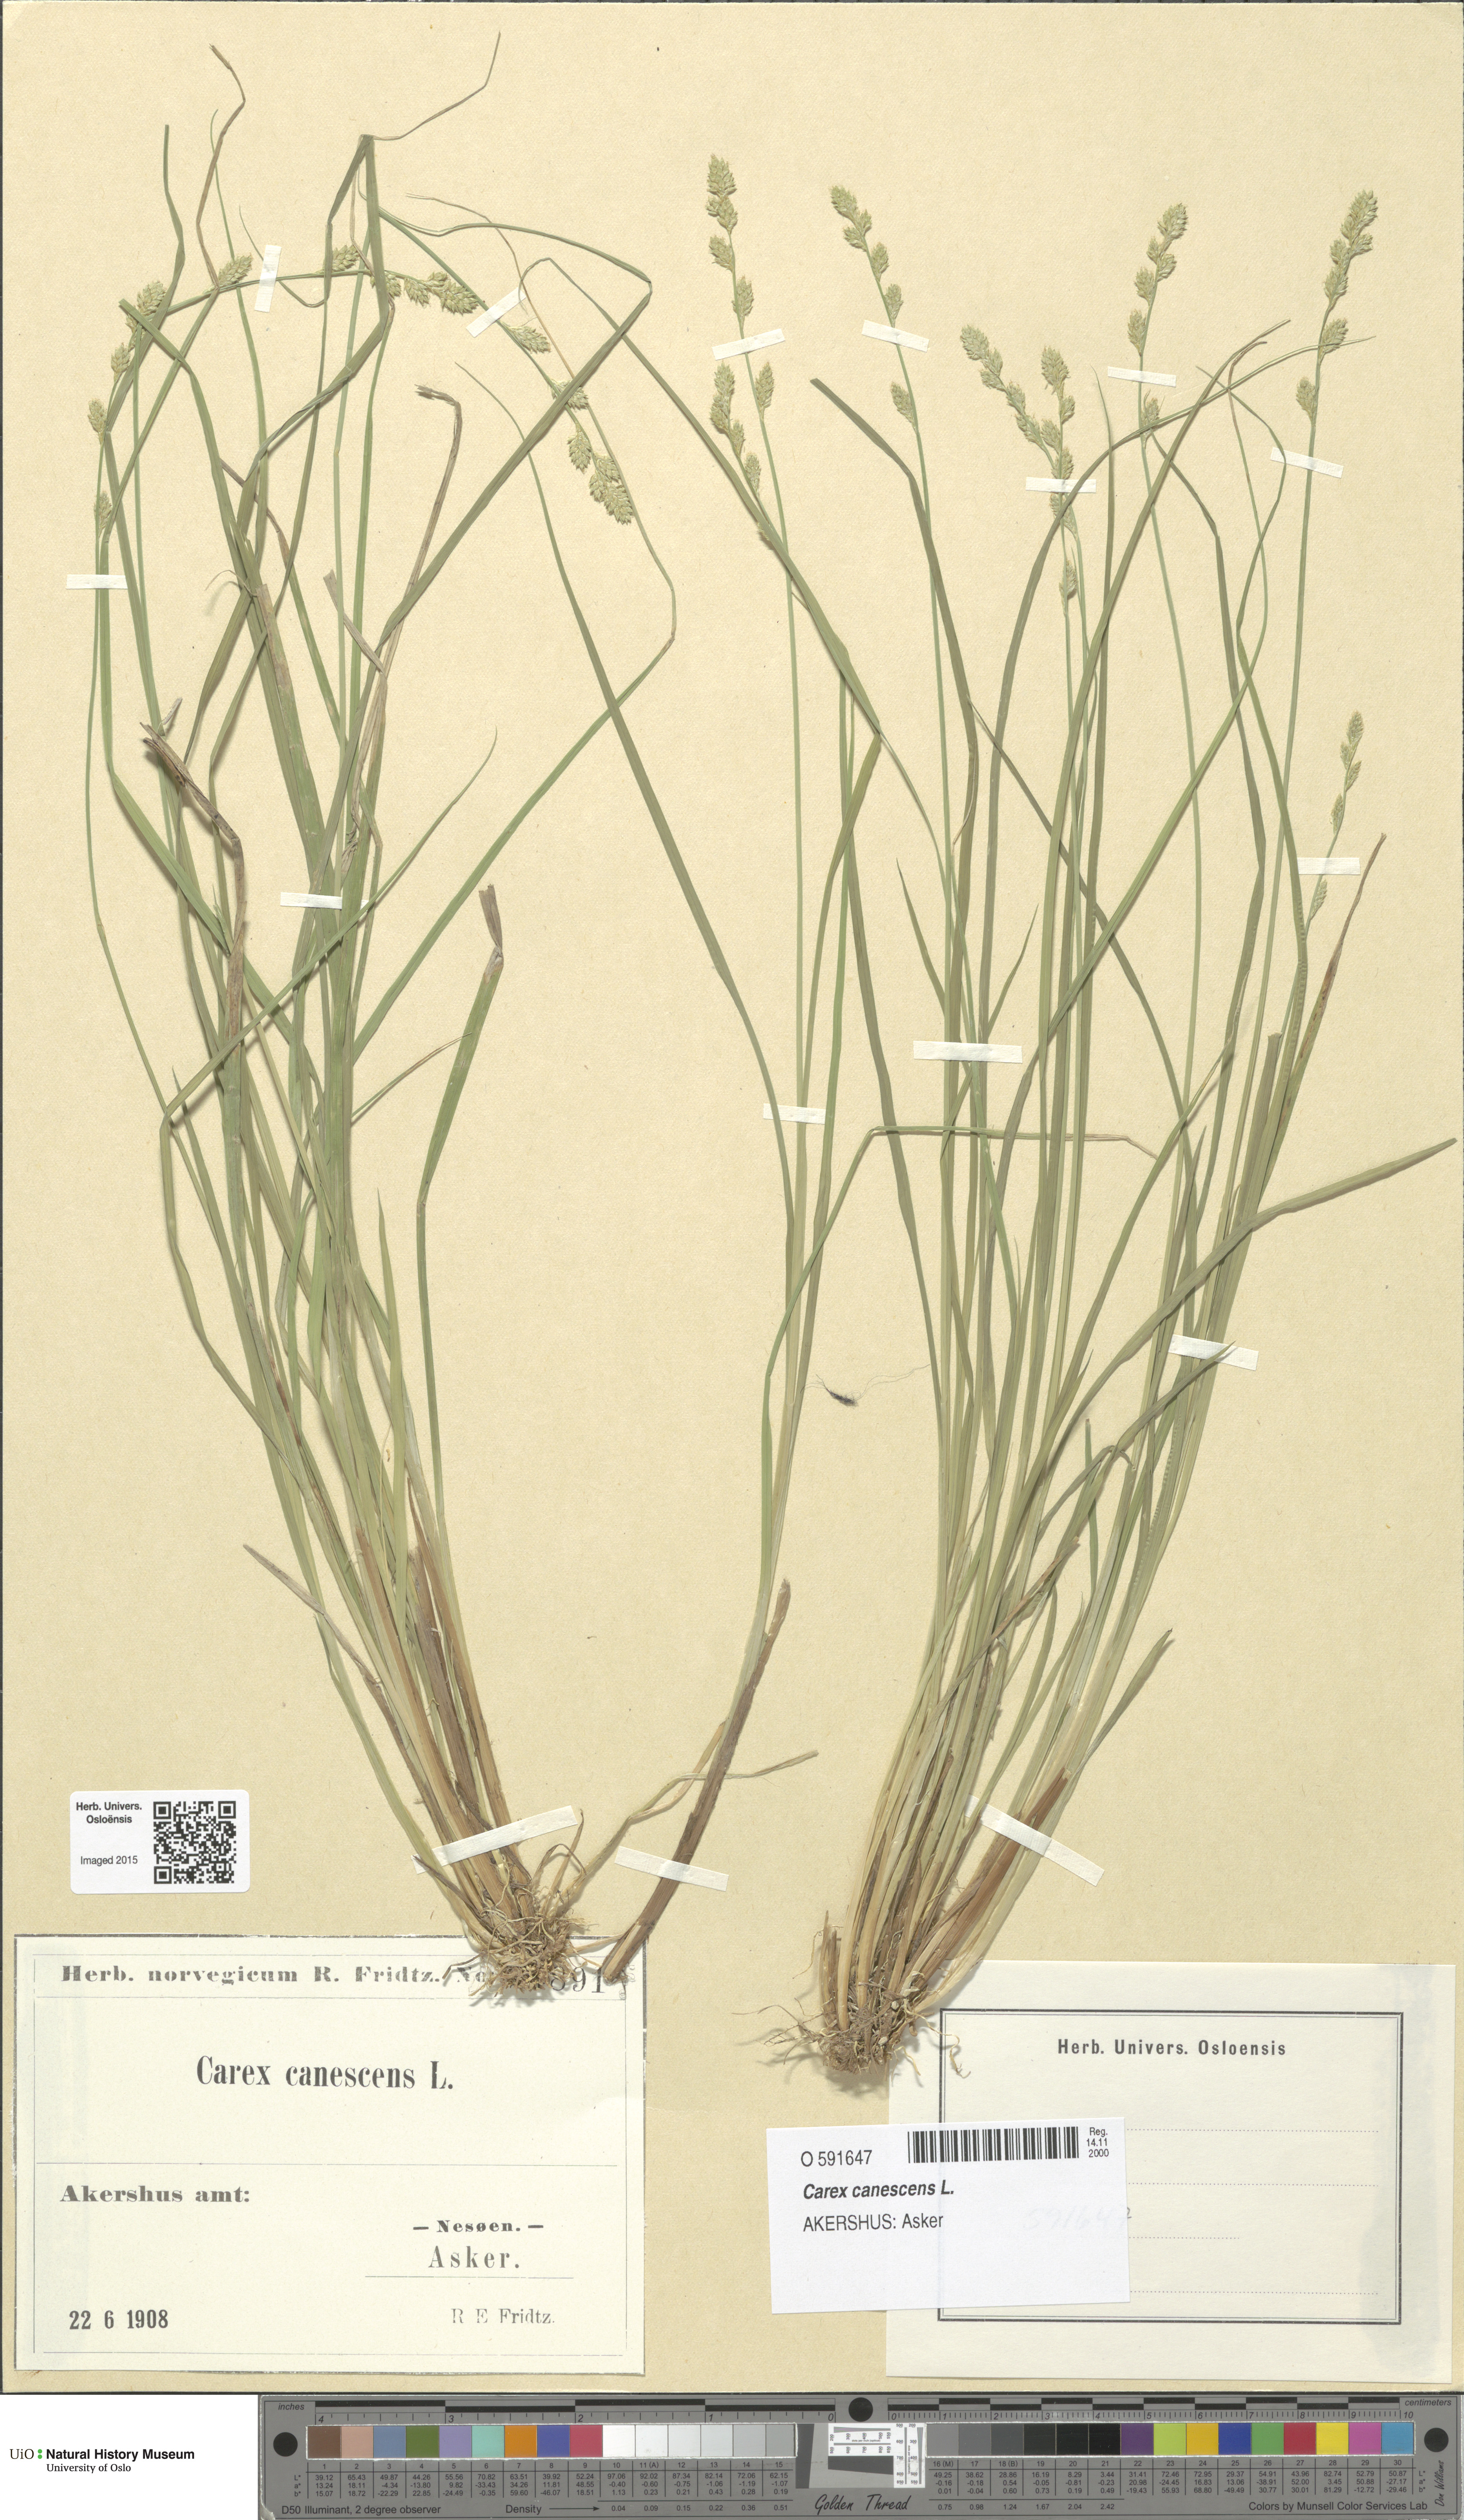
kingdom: Plantae
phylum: Tracheophyta
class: Liliopsida
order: Poales
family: Cyperaceae
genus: Carex
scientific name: Carex canescens
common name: White sedge
